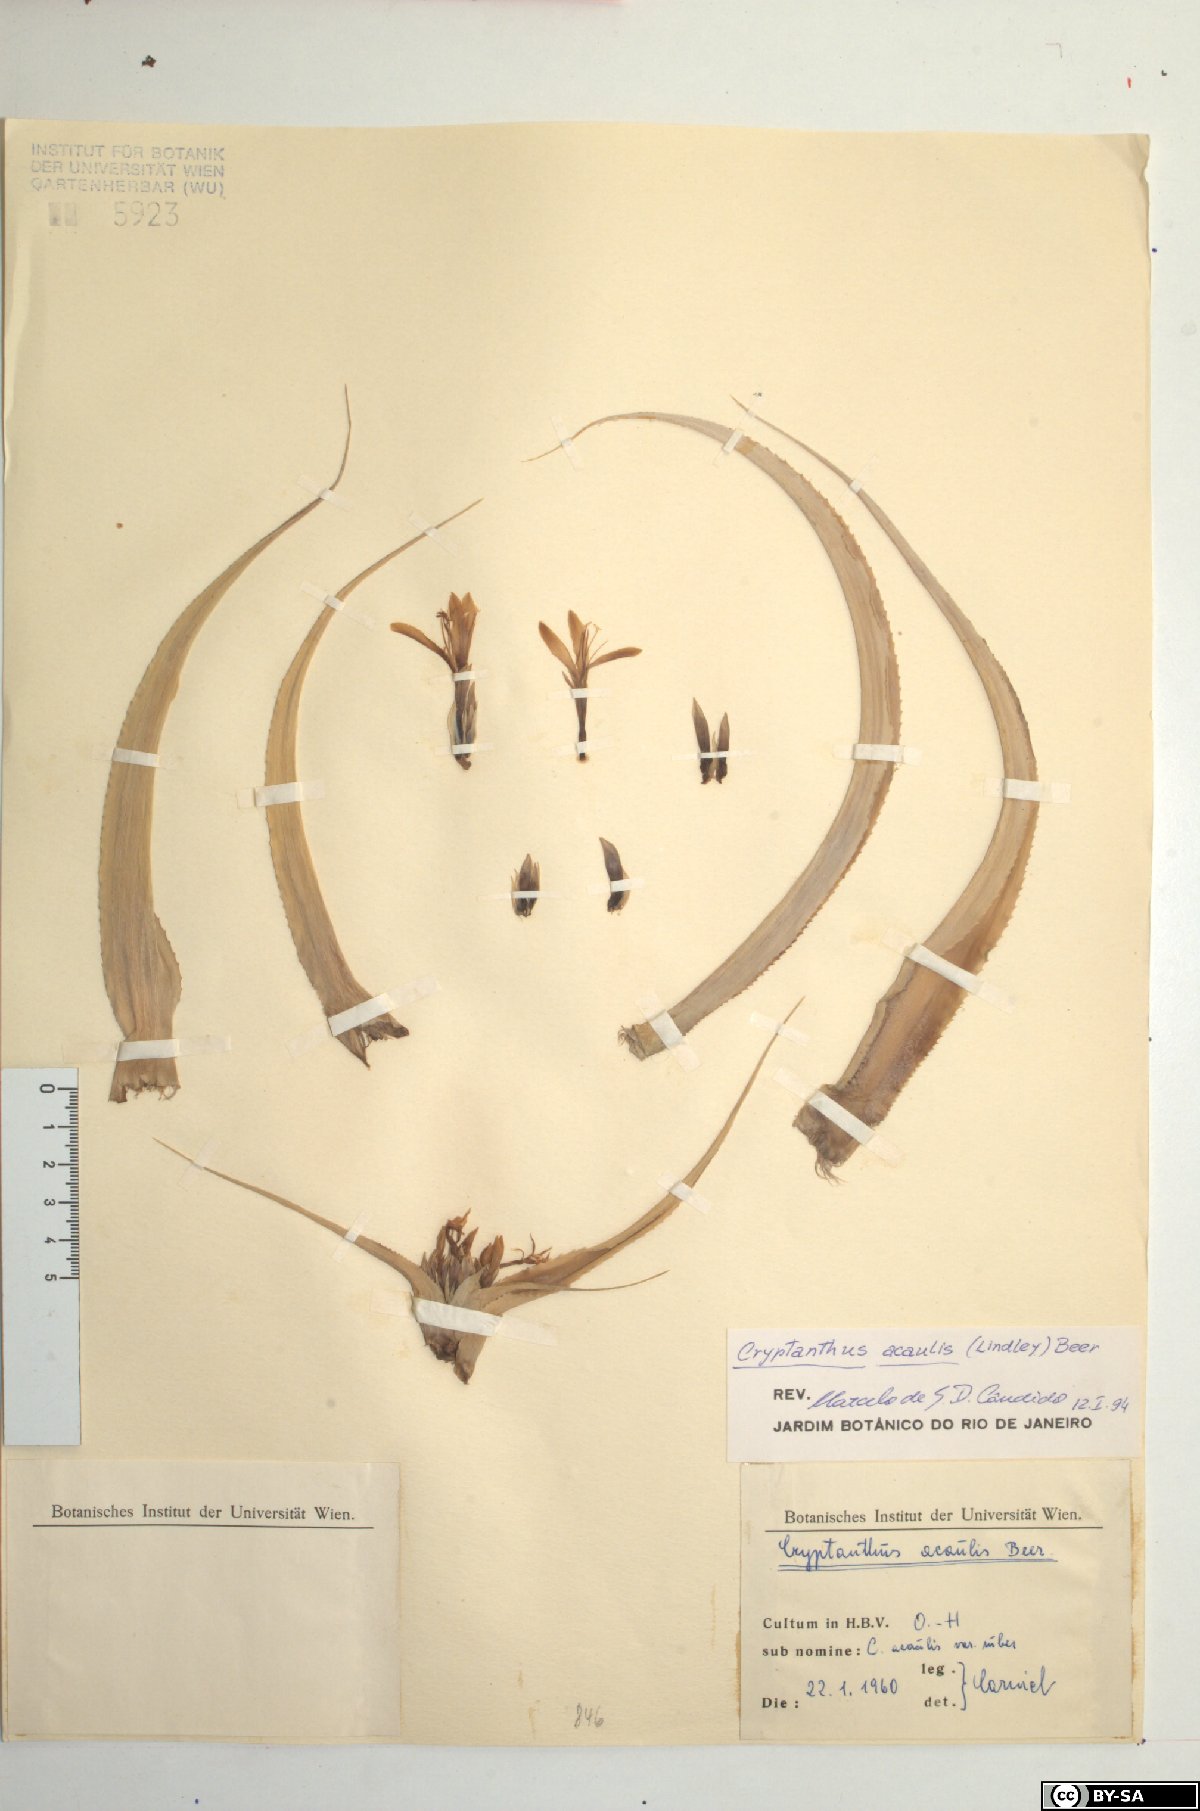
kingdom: Plantae
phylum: Tracheophyta
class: Liliopsida
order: Poales
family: Bromeliaceae
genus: Cryptanthus
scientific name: Cryptanthus acaulis
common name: Starfishplant
